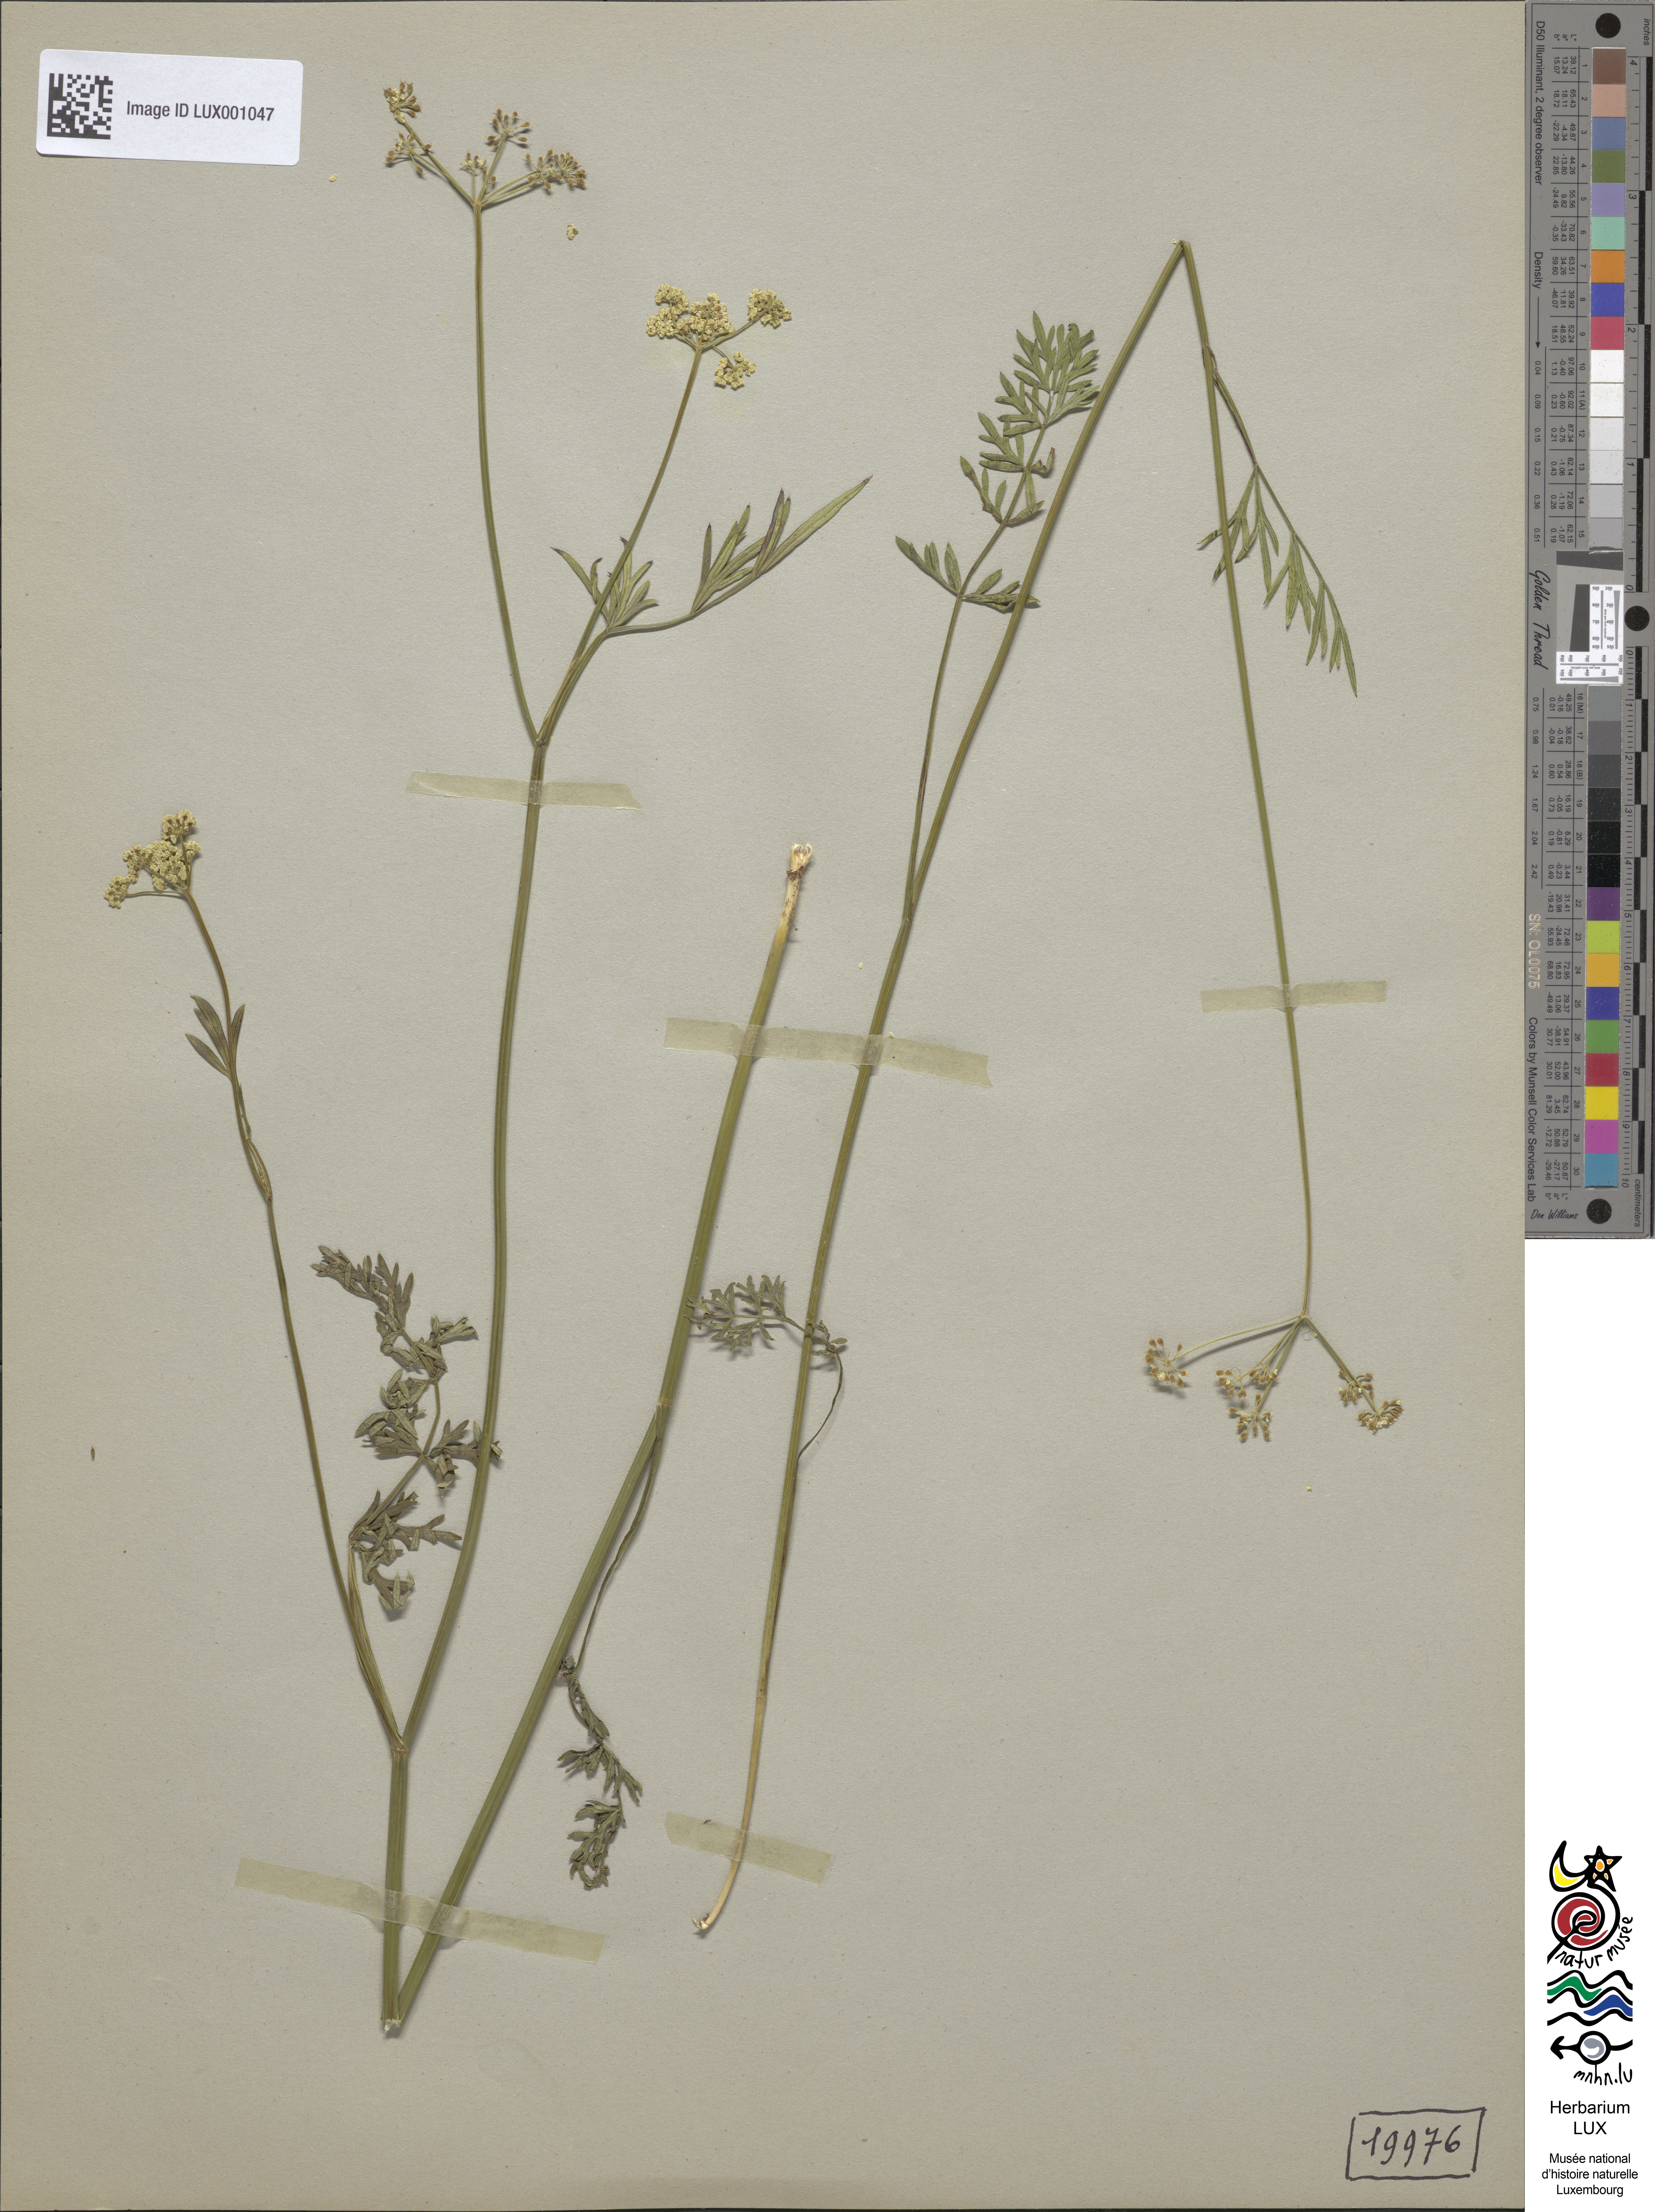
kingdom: Plantae
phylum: Tracheophyta
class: Magnoliopsida
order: Apiales
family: Apiaceae
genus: Dichoropetalum
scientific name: Dichoropetalum carvifolia
